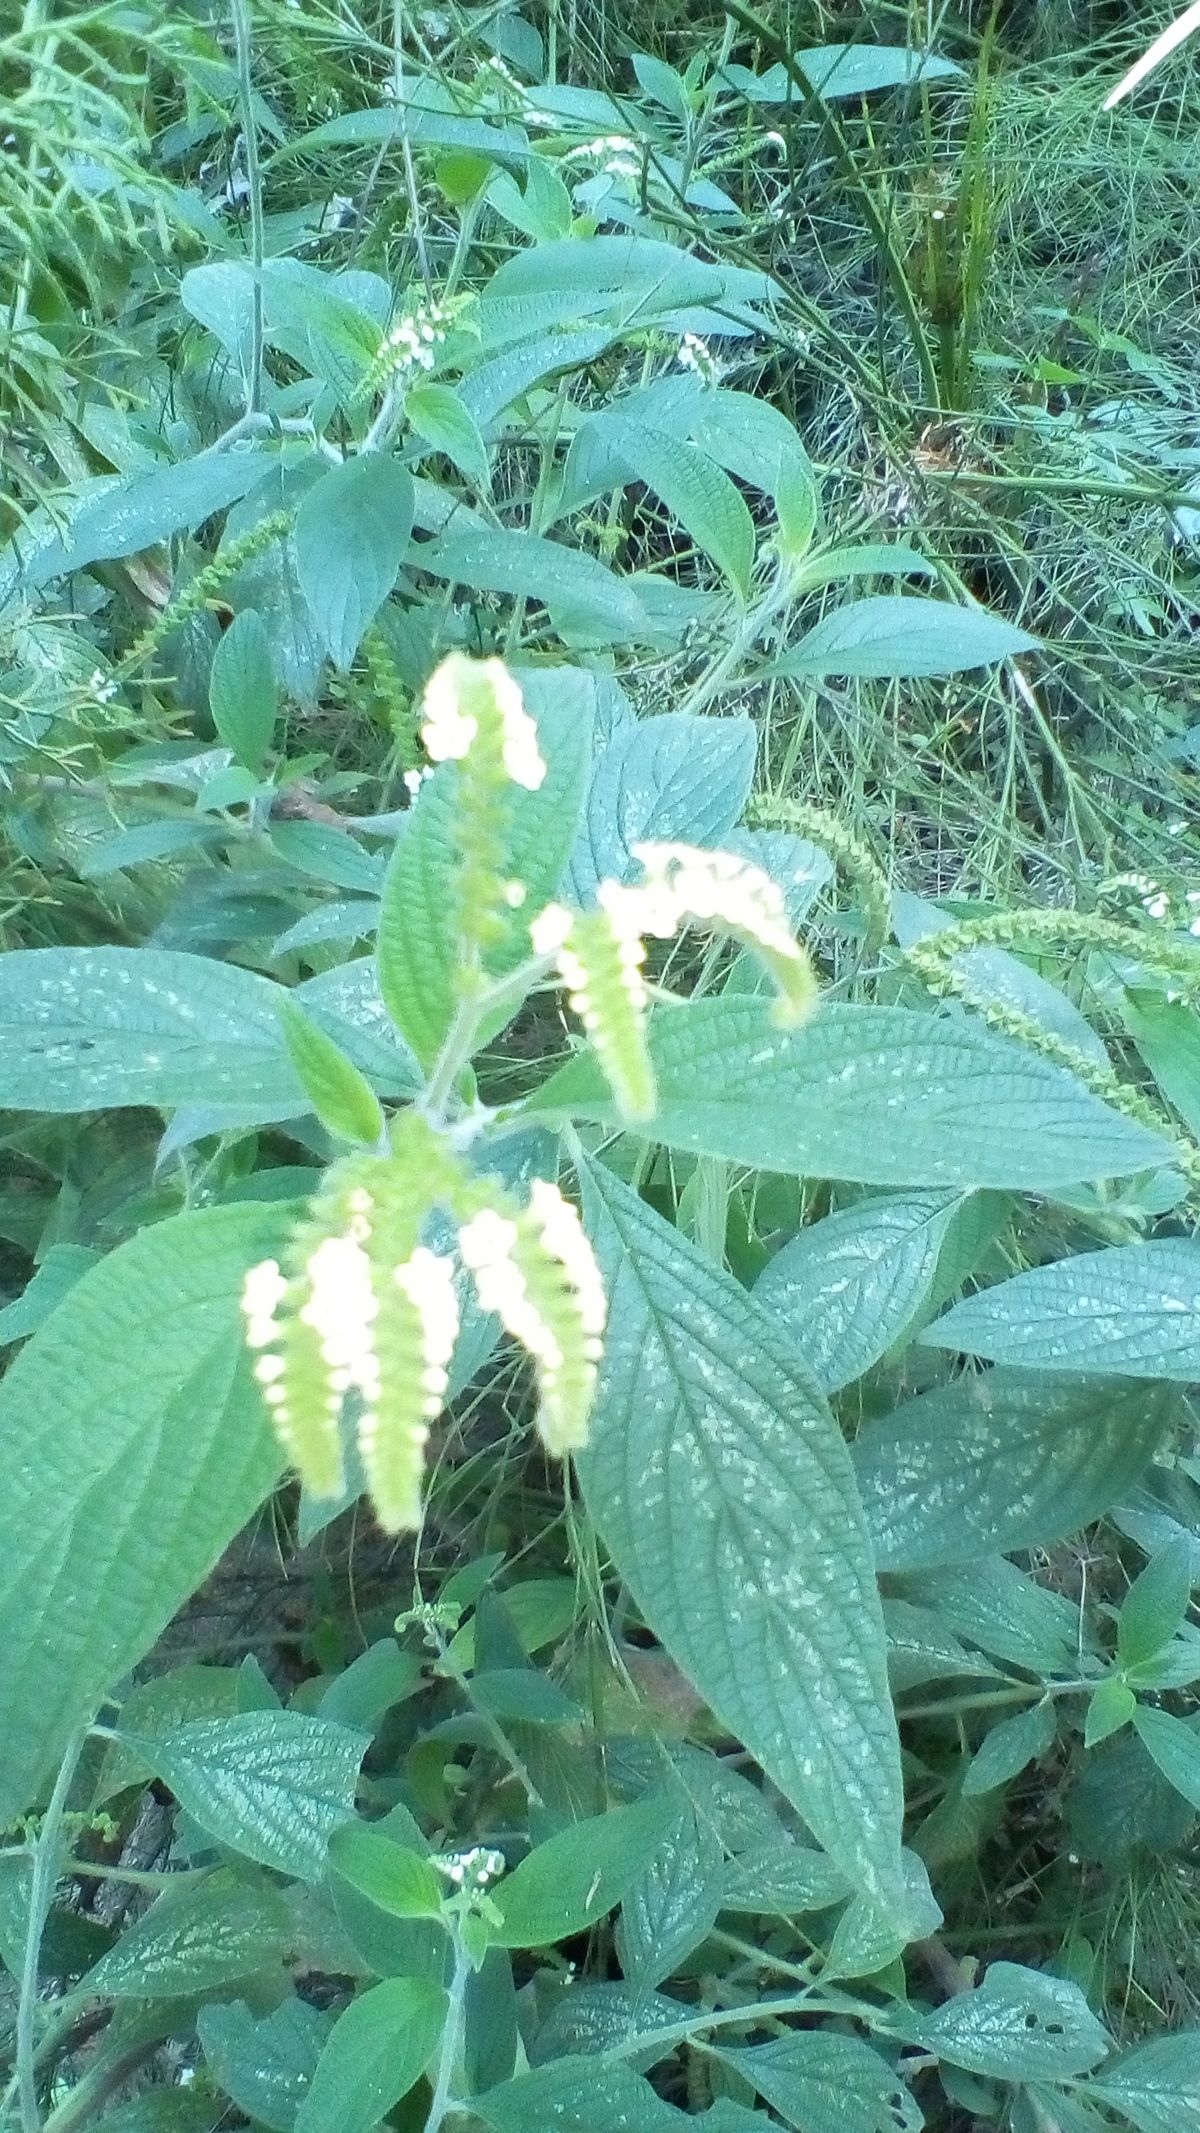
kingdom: Plantae
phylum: Tracheophyta
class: Magnoliopsida
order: Boraginales
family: Heliotropiaceae
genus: Heliotropium
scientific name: Heliotropium rufipilum
